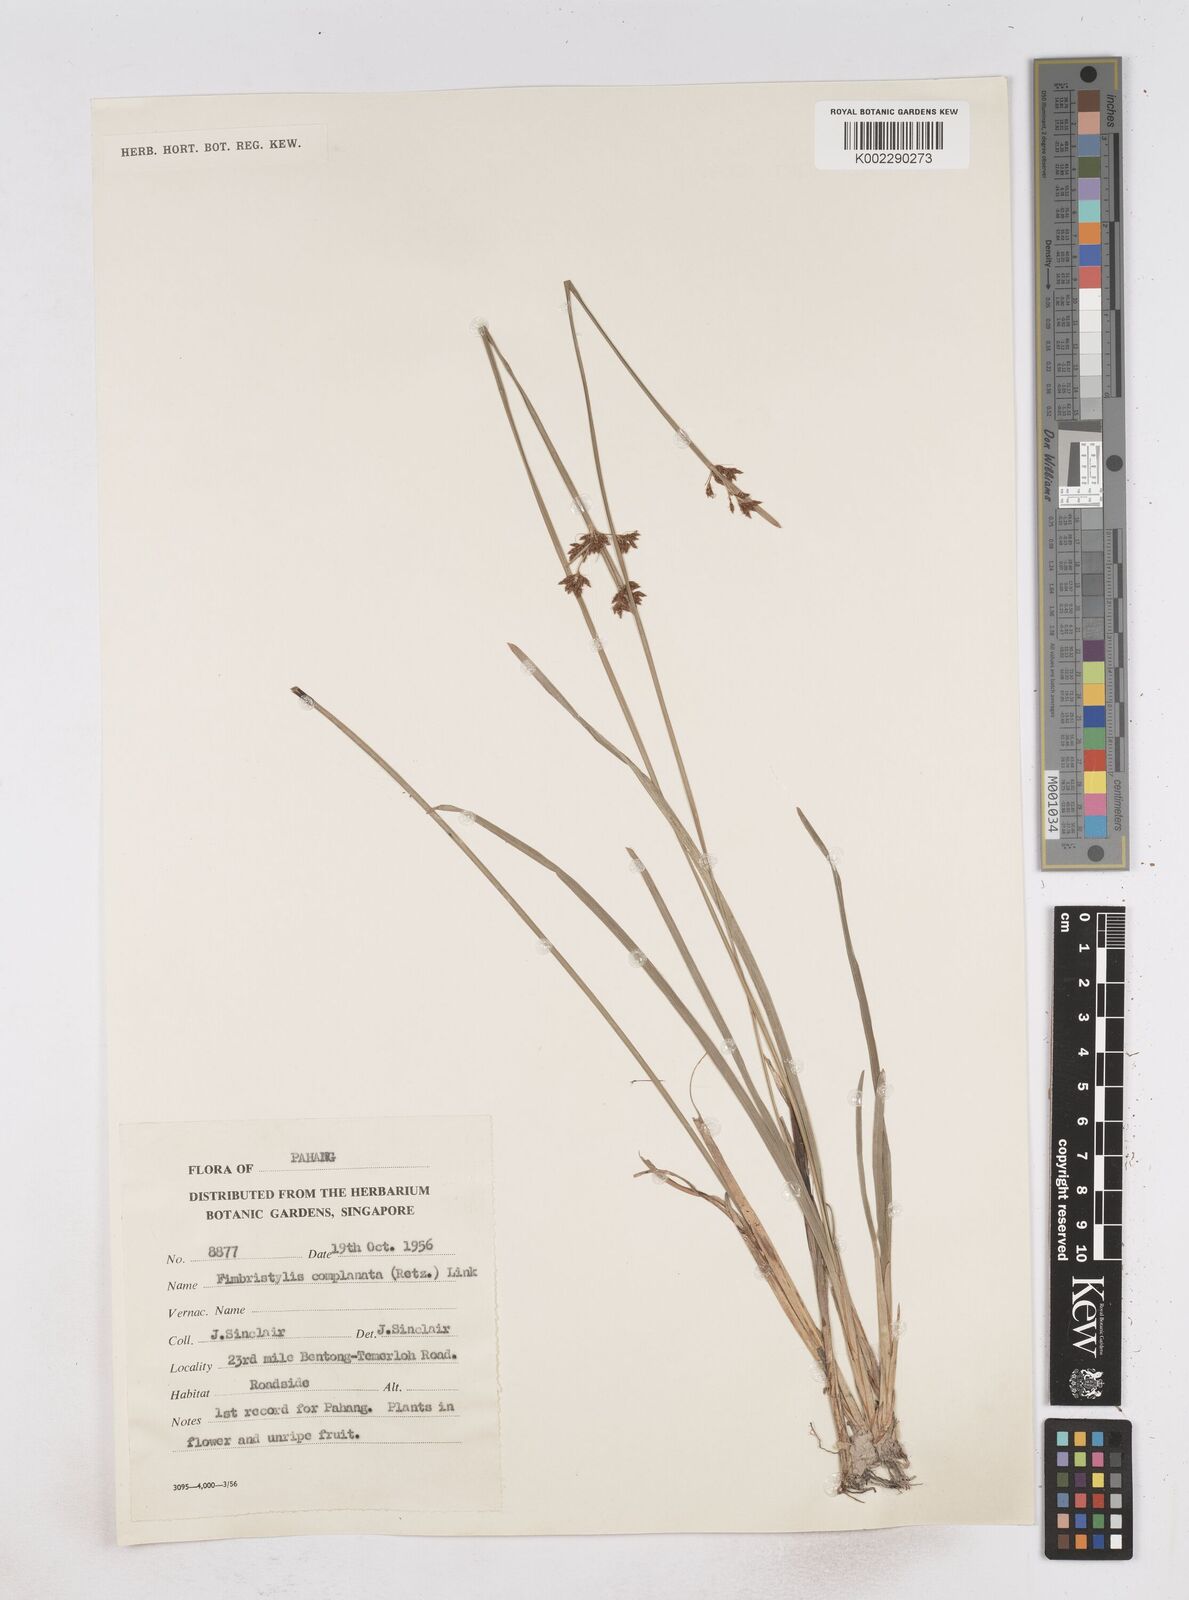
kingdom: Plantae
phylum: Tracheophyta
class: Liliopsida
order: Poales
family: Cyperaceae
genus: Fimbristylis
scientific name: Fimbristylis complanata
